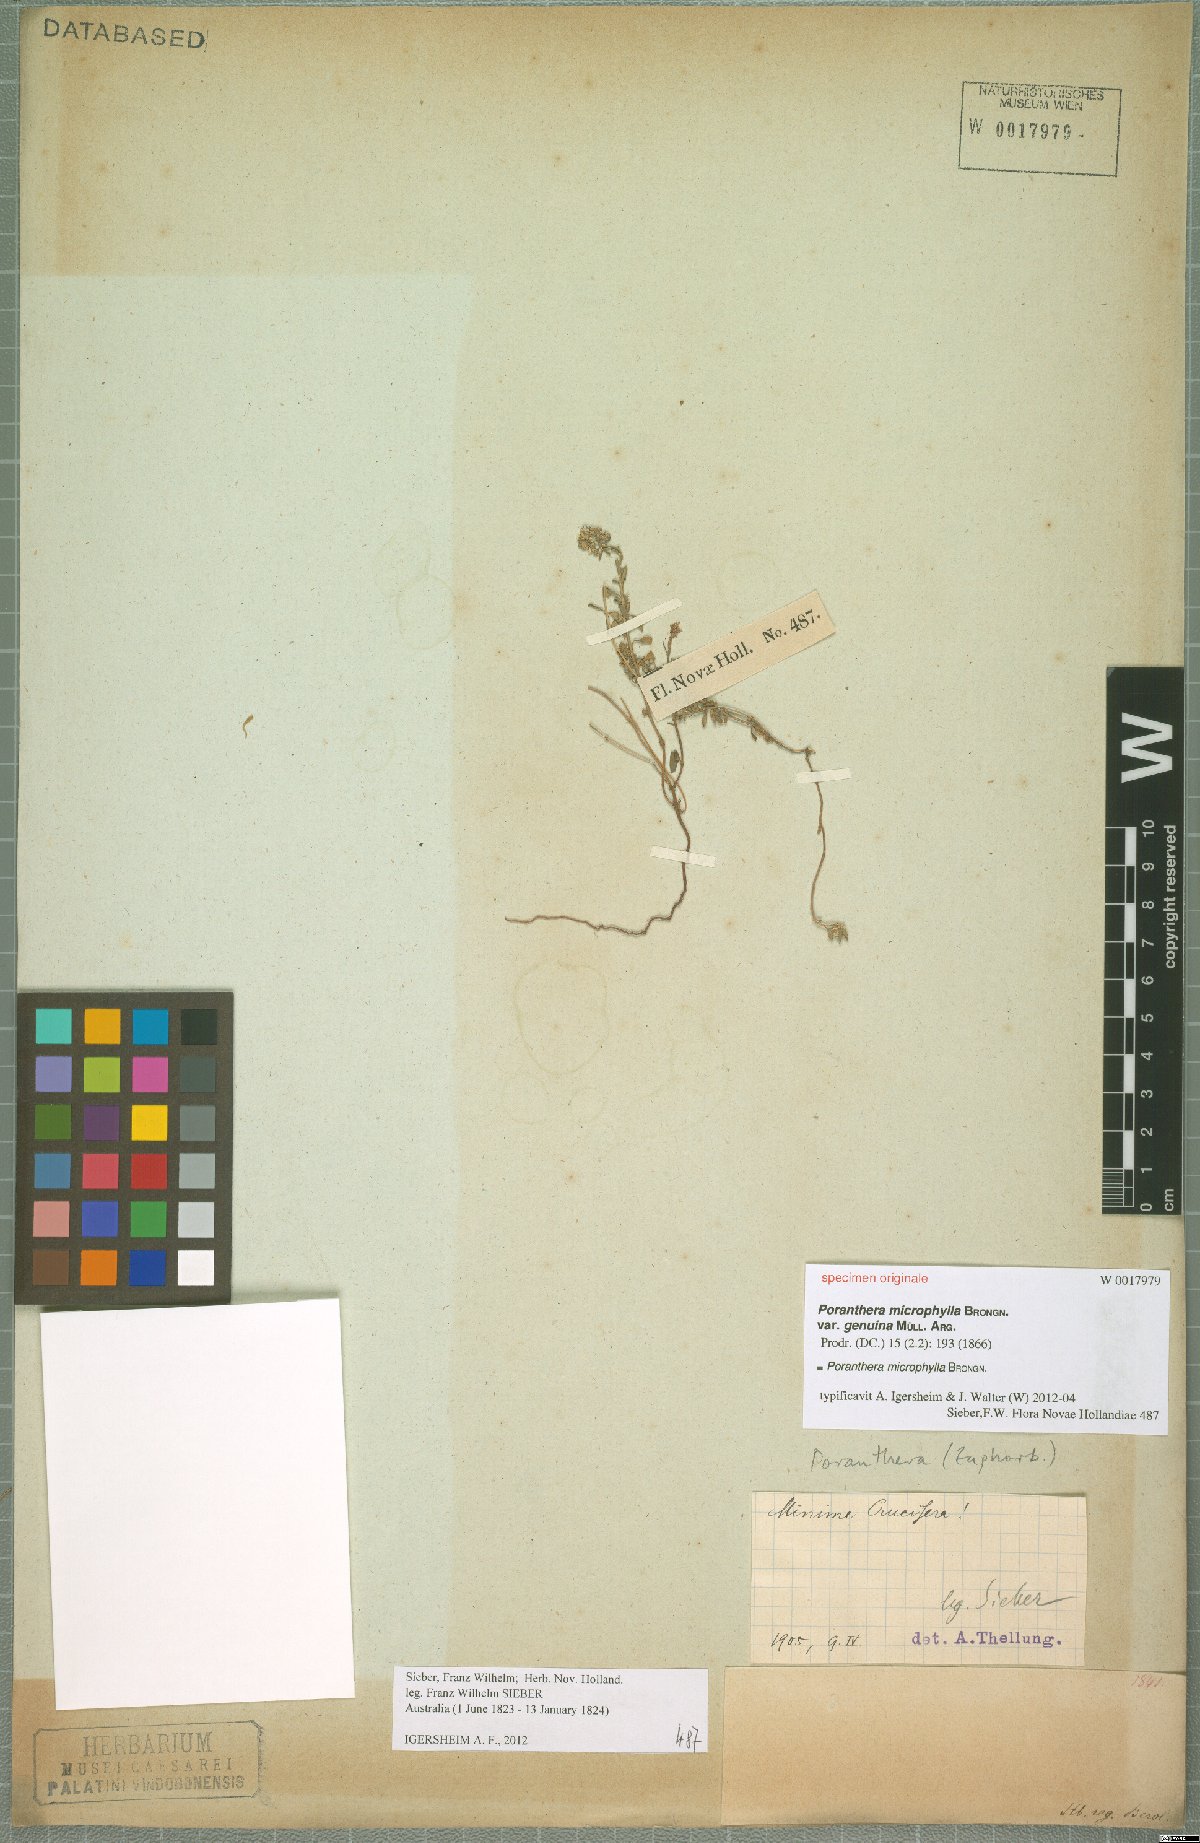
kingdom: Plantae
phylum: Tracheophyta
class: Magnoliopsida
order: Malpighiales
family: Phyllanthaceae
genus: Poranthera
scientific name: Poranthera microphylla
